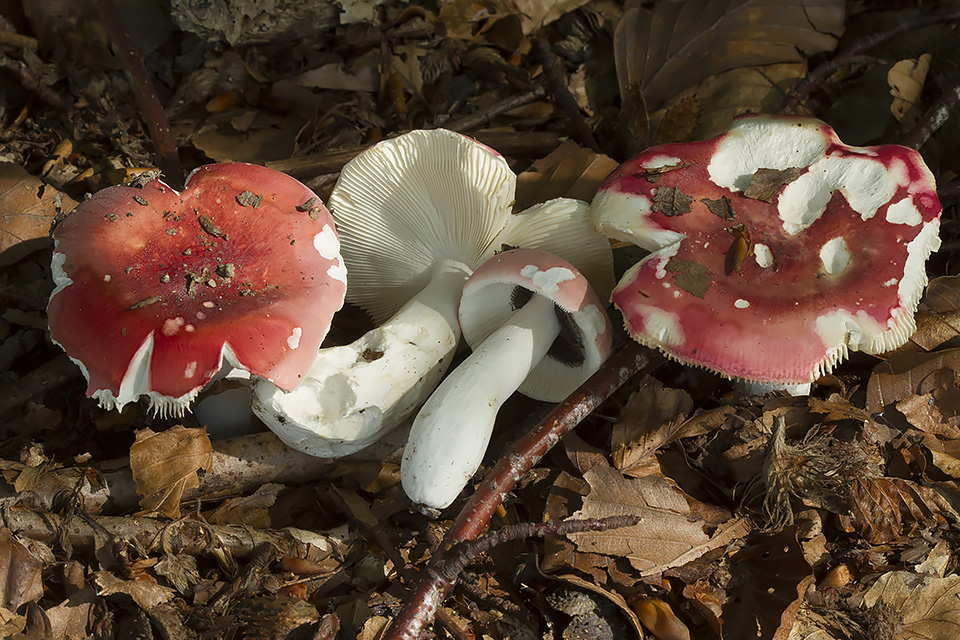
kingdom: Fungi
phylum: Basidiomycota
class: Agaricomycetes
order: Russulales
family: Russulaceae
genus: Russula
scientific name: Russula aurora
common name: rosa skørhat
